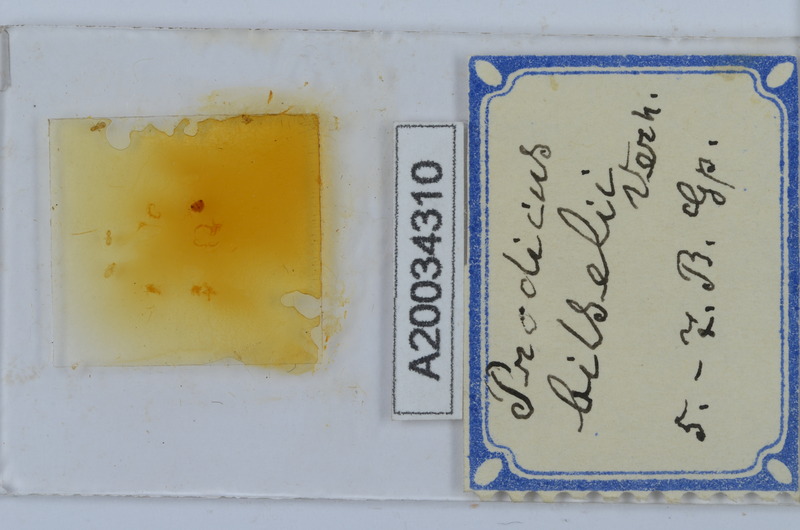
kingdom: Animalia
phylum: Arthropoda
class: Diplopoda
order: Chordeumatida
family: Anthroleucosomatidae
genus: Anamastigona
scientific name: Anamastigona bilselii
